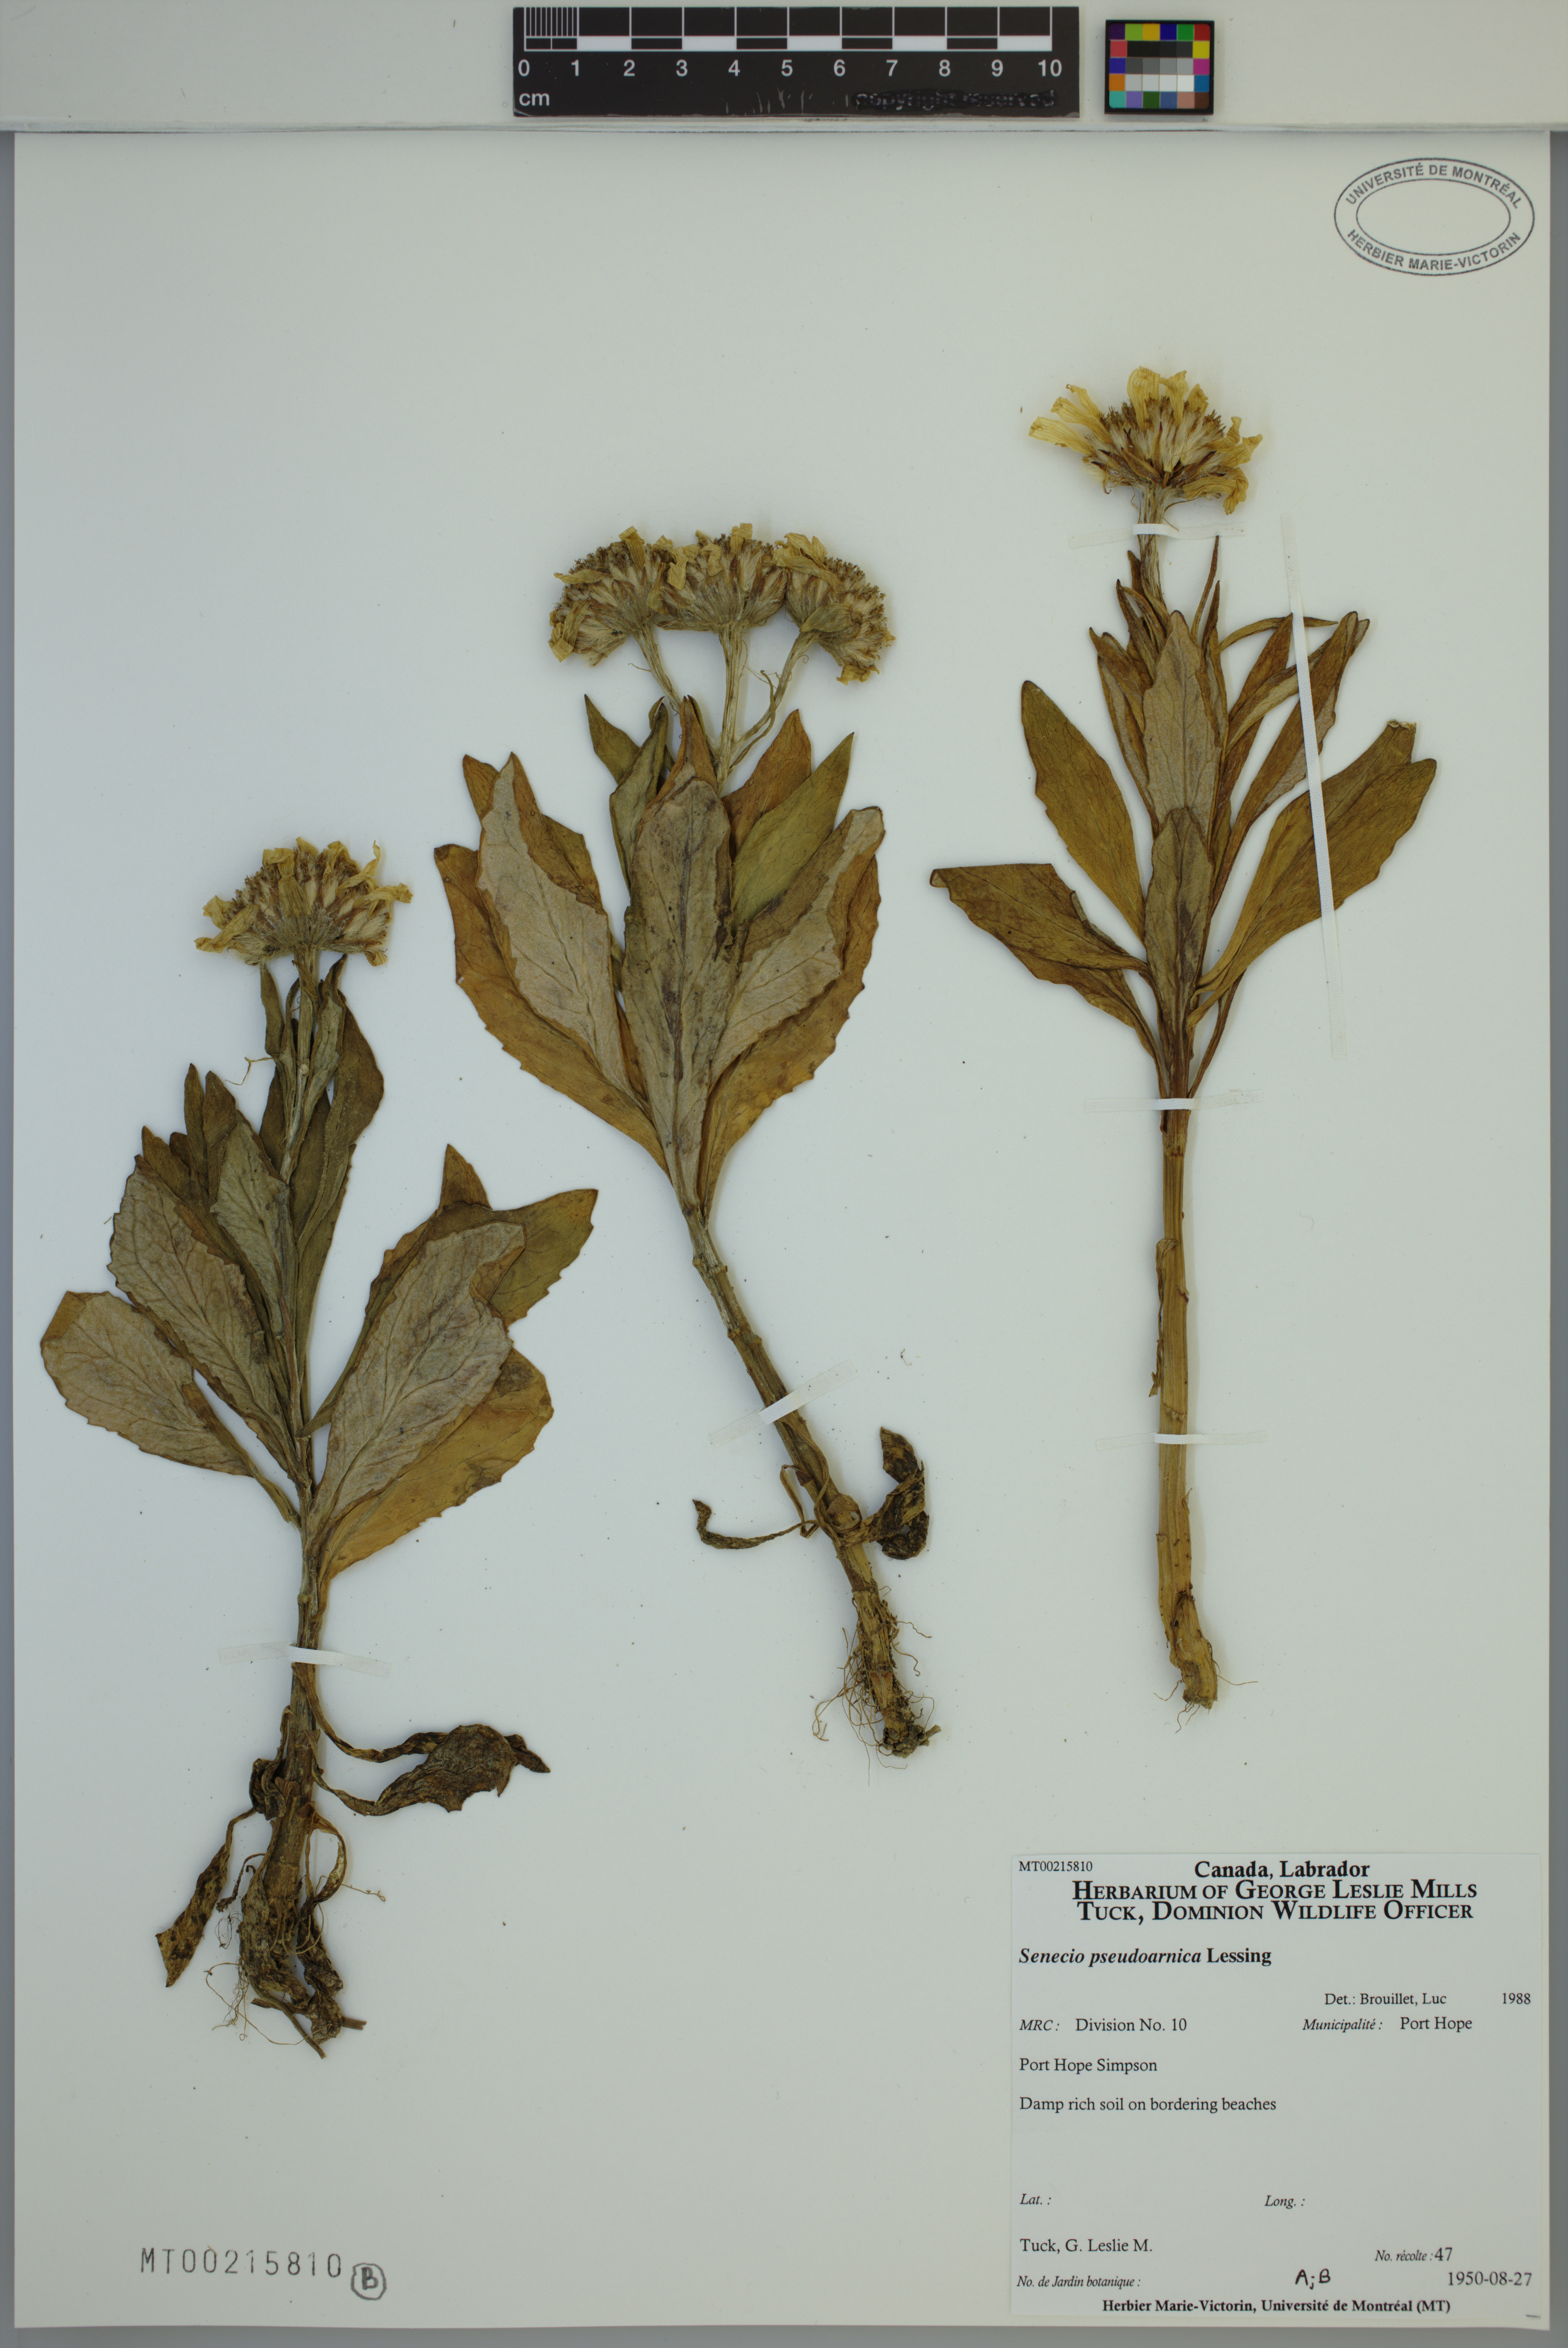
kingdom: Plantae
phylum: Tracheophyta
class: Magnoliopsida
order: Asterales
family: Asteraceae
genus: Jacobaea
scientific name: Jacobaea pseudoarnica
